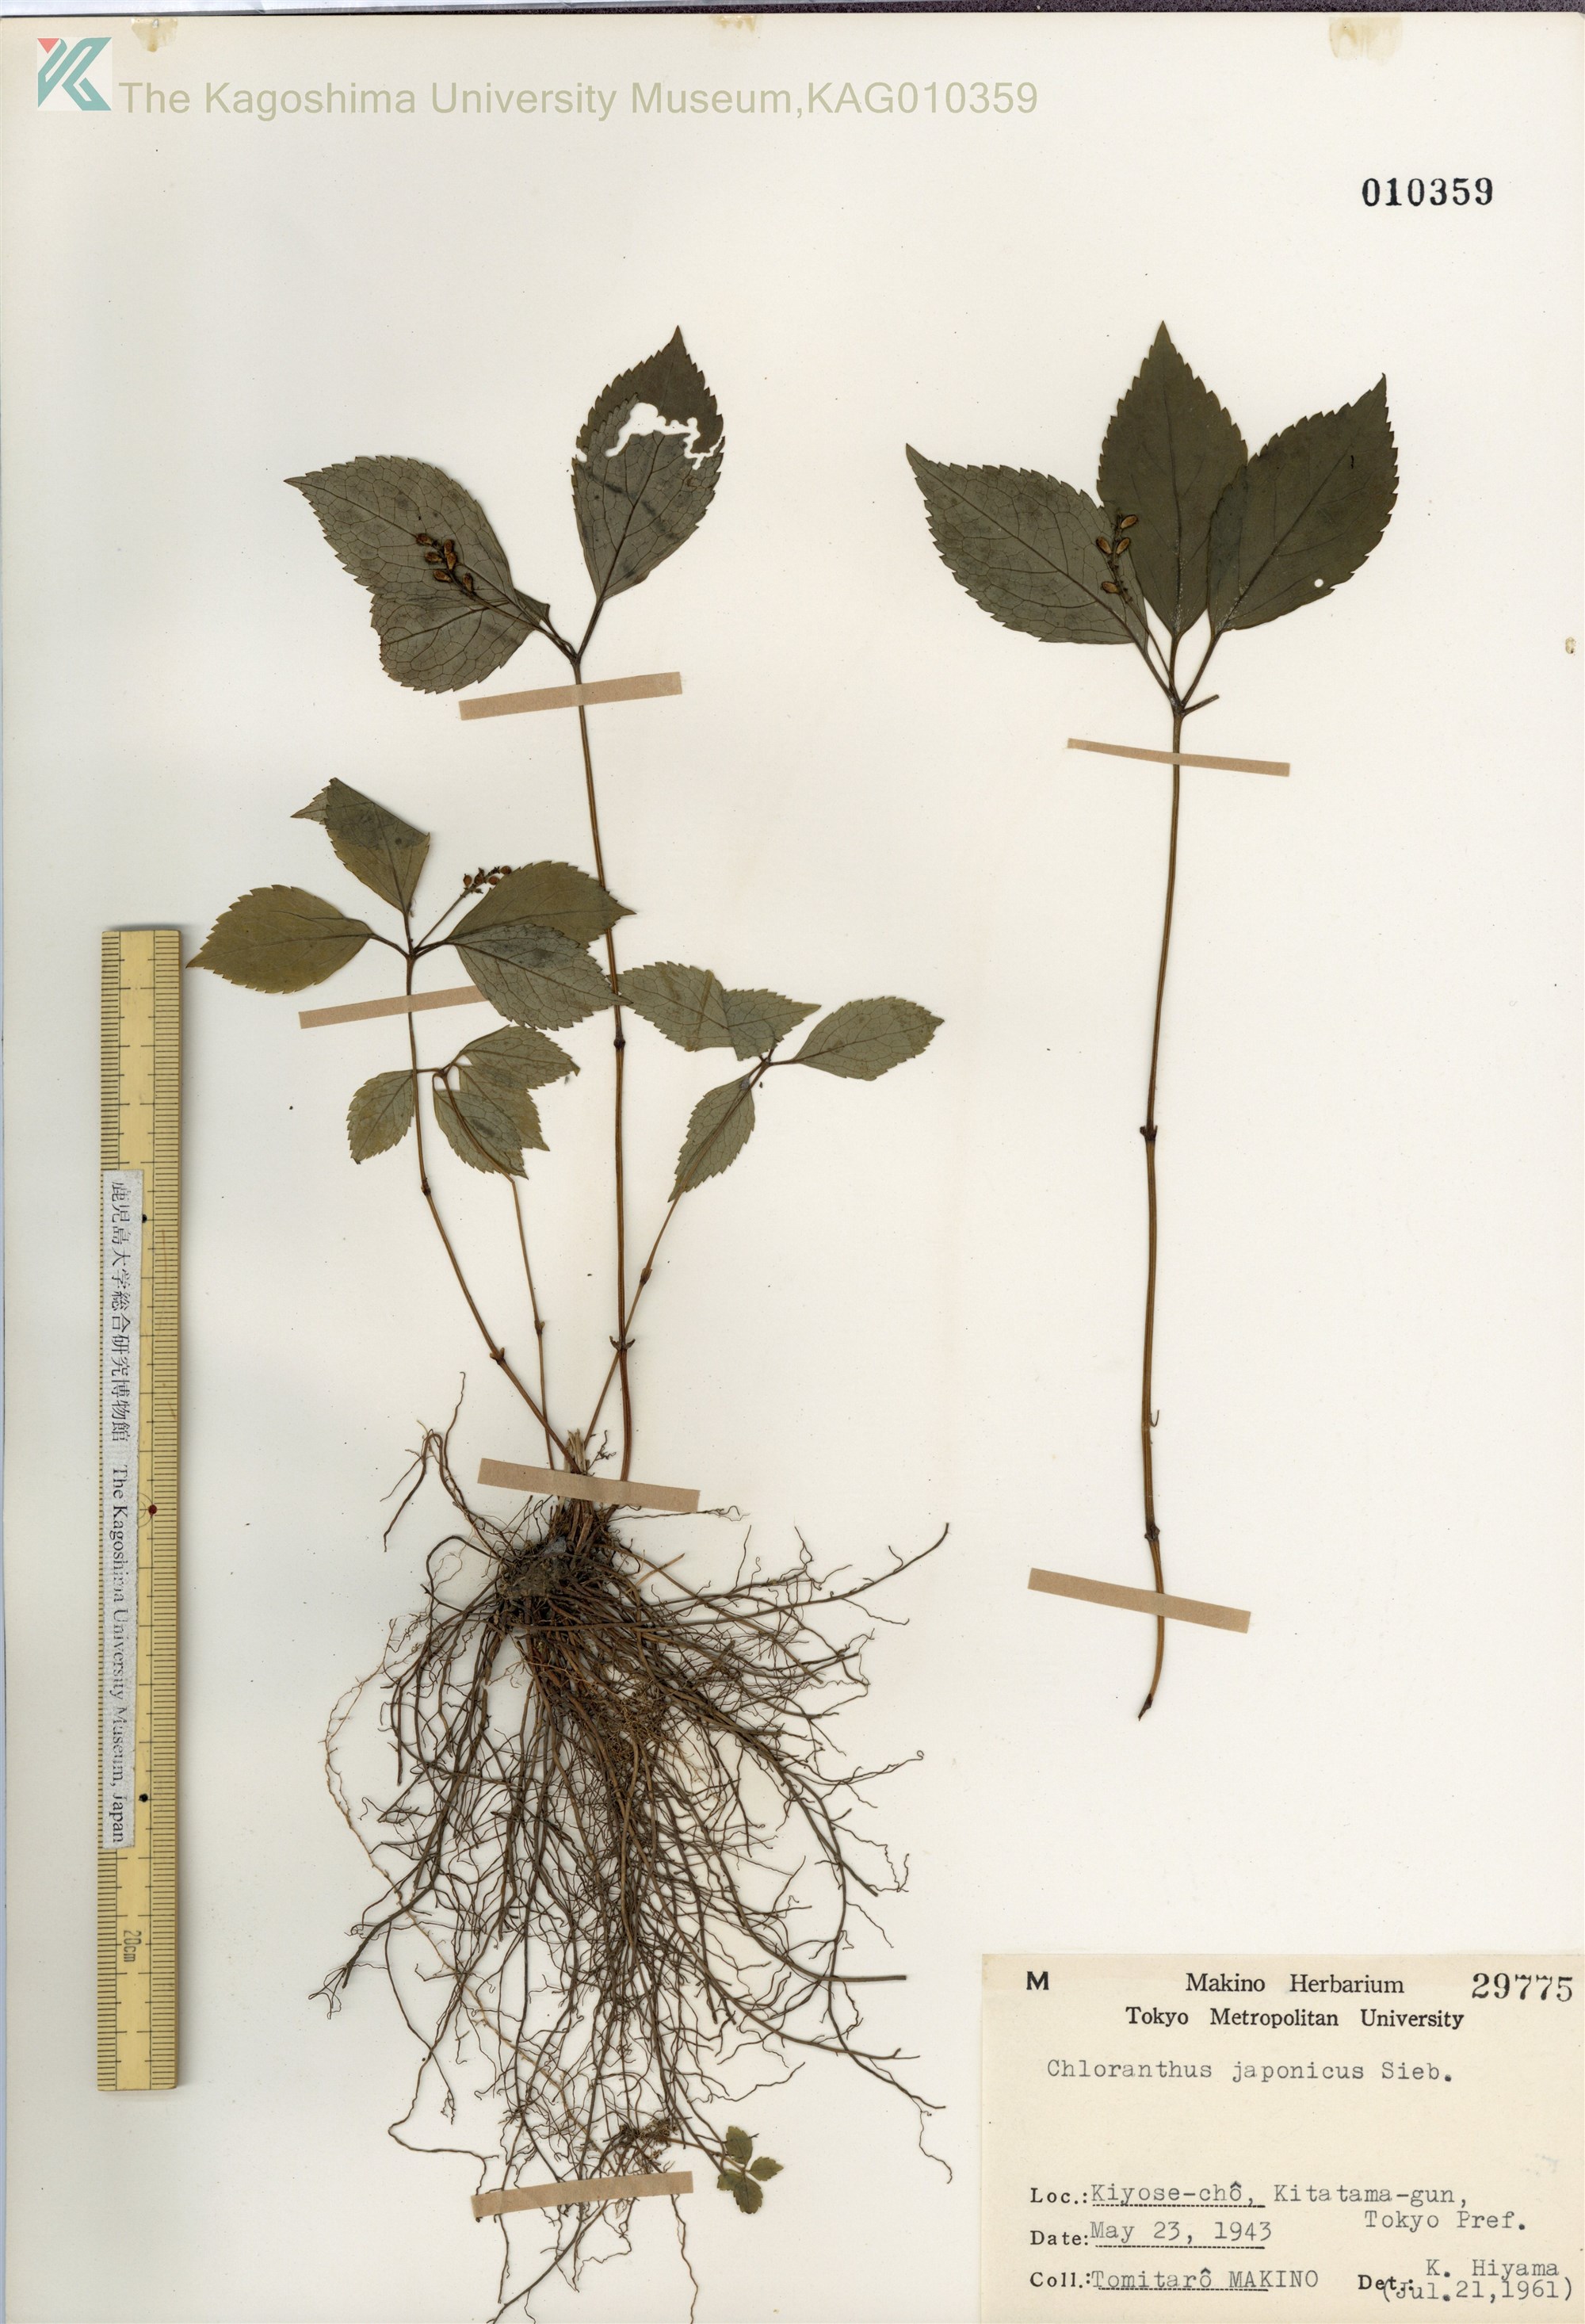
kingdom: Plantae
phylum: Tracheophyta
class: Magnoliopsida
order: Chloranthales
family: Chloranthaceae
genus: Chloranthus
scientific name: Chloranthus japonicus
